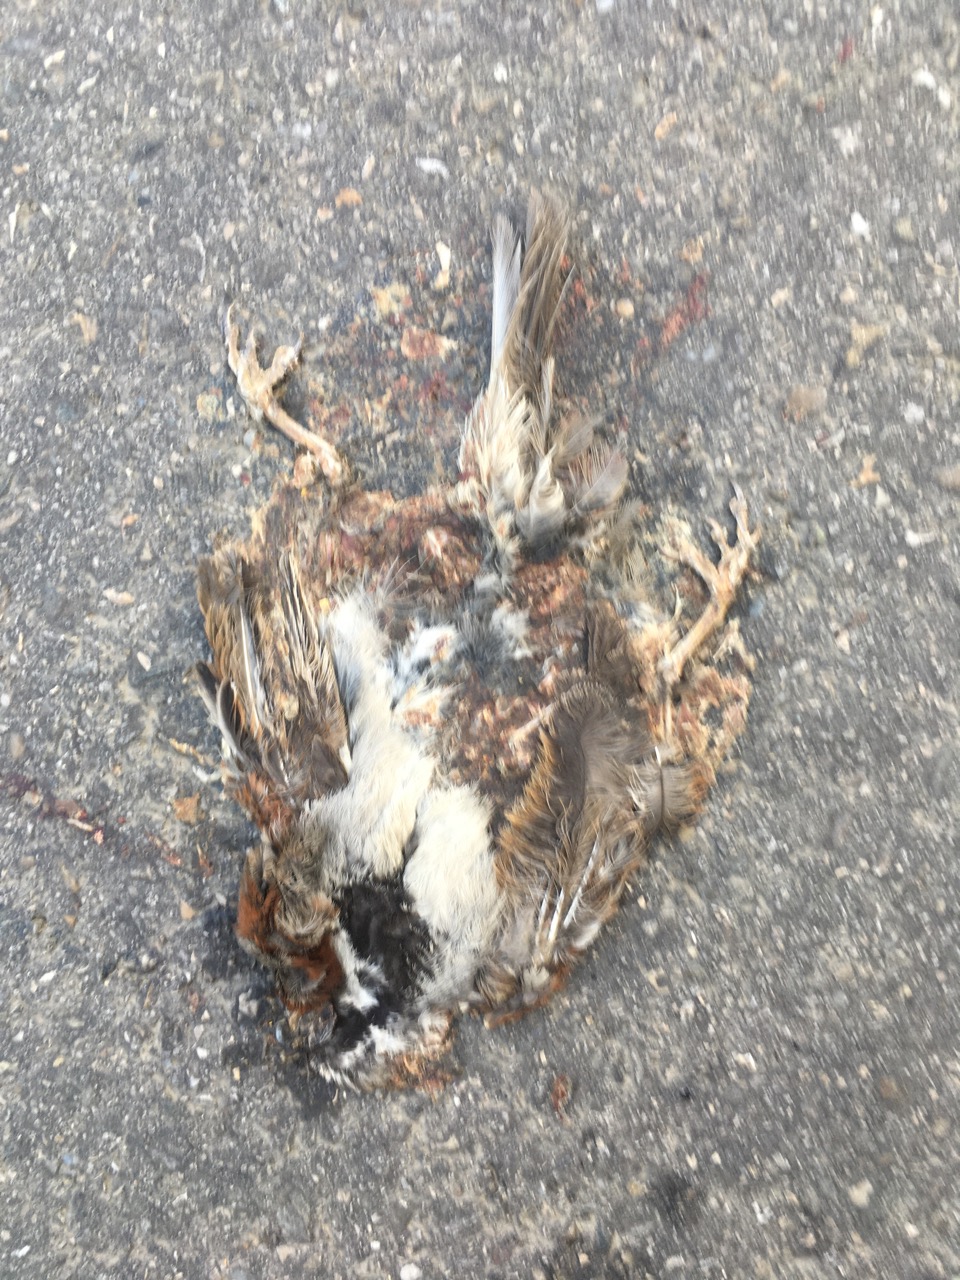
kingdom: Animalia
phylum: Chordata
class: Aves
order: Passeriformes
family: Passeridae
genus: Passer
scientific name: Passer montanus
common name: Eurasian tree sparrow
